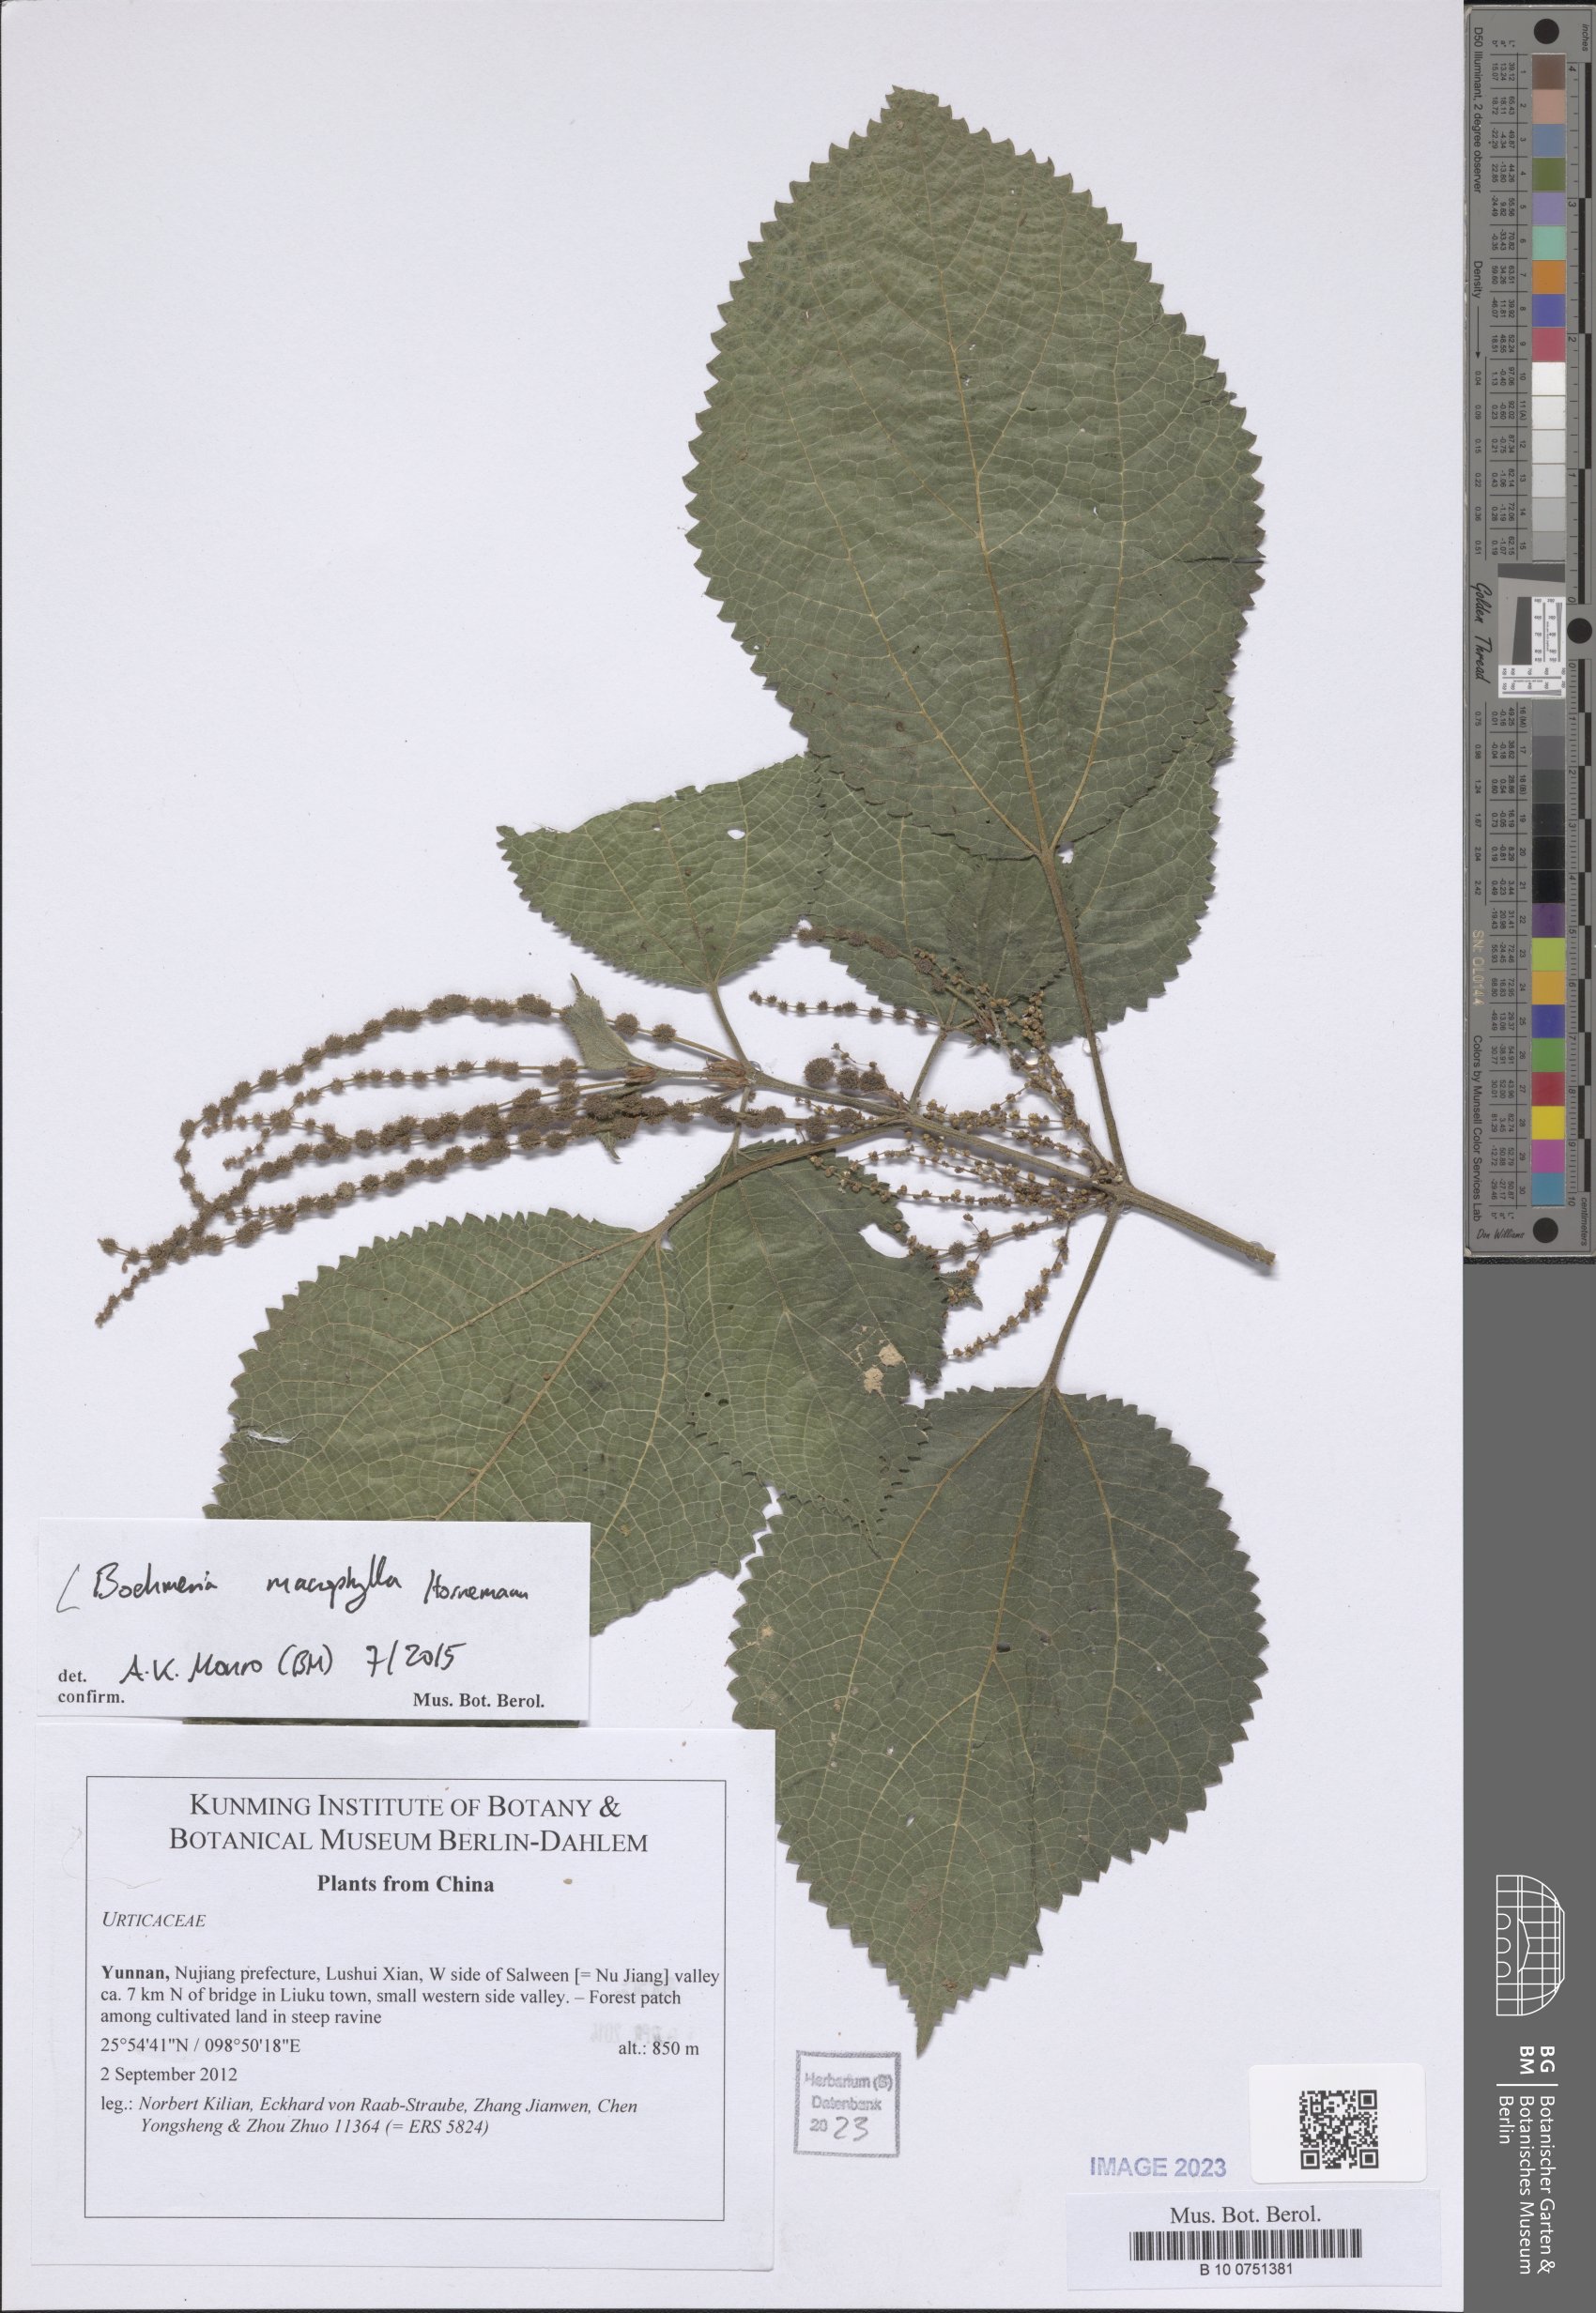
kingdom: Plantae
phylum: Tracheophyta
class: Magnoliopsida
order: Rosales
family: Urticaceae
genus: Boehmeria
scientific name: Boehmeria virgata
